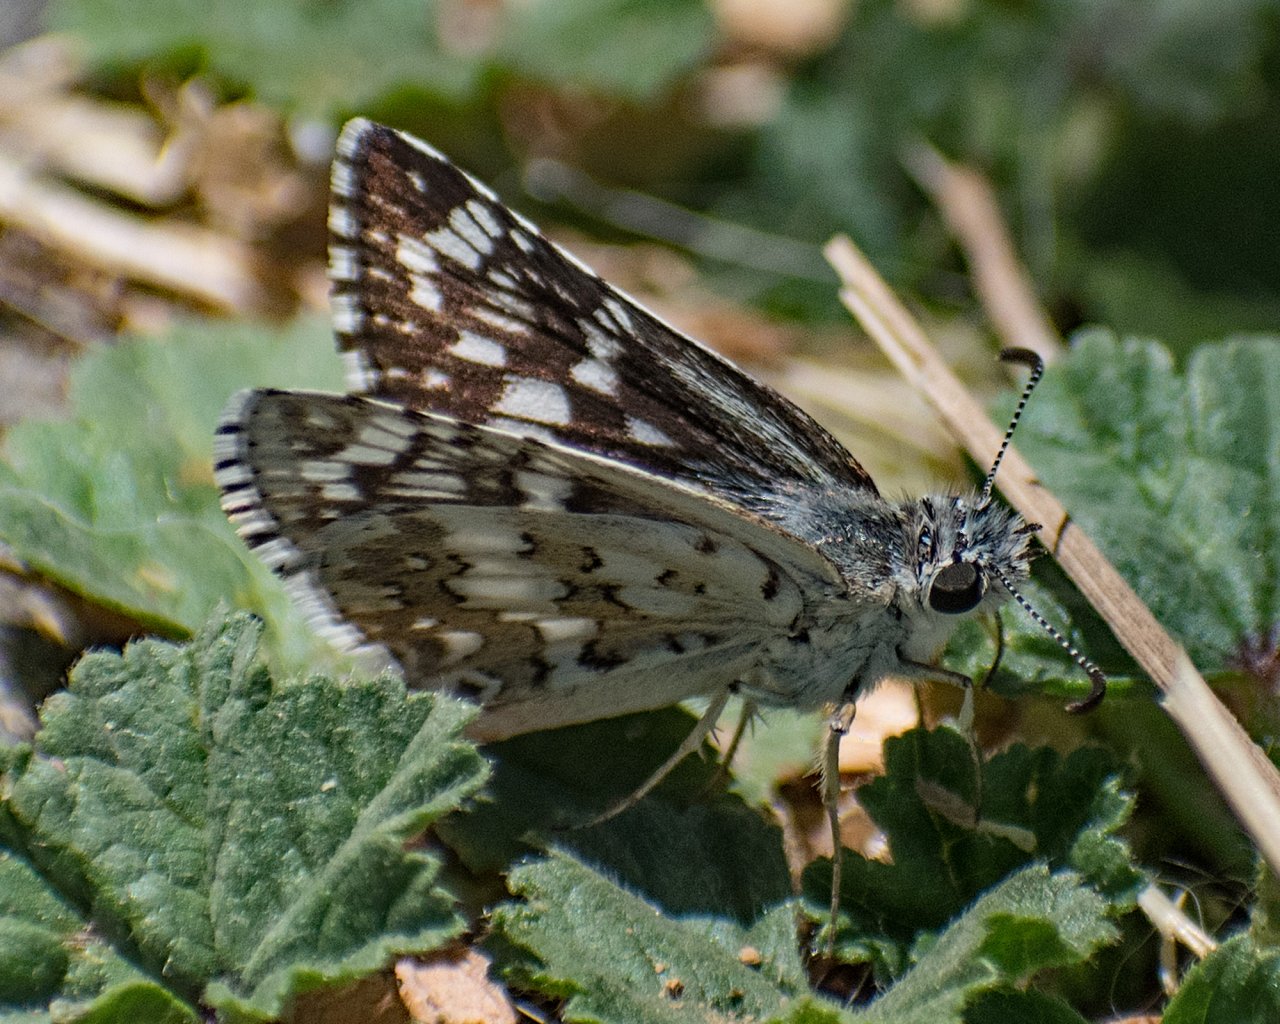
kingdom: Animalia
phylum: Arthropoda
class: Insecta
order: Lepidoptera
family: Hesperiidae
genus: Pyrgus
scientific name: Pyrgus
